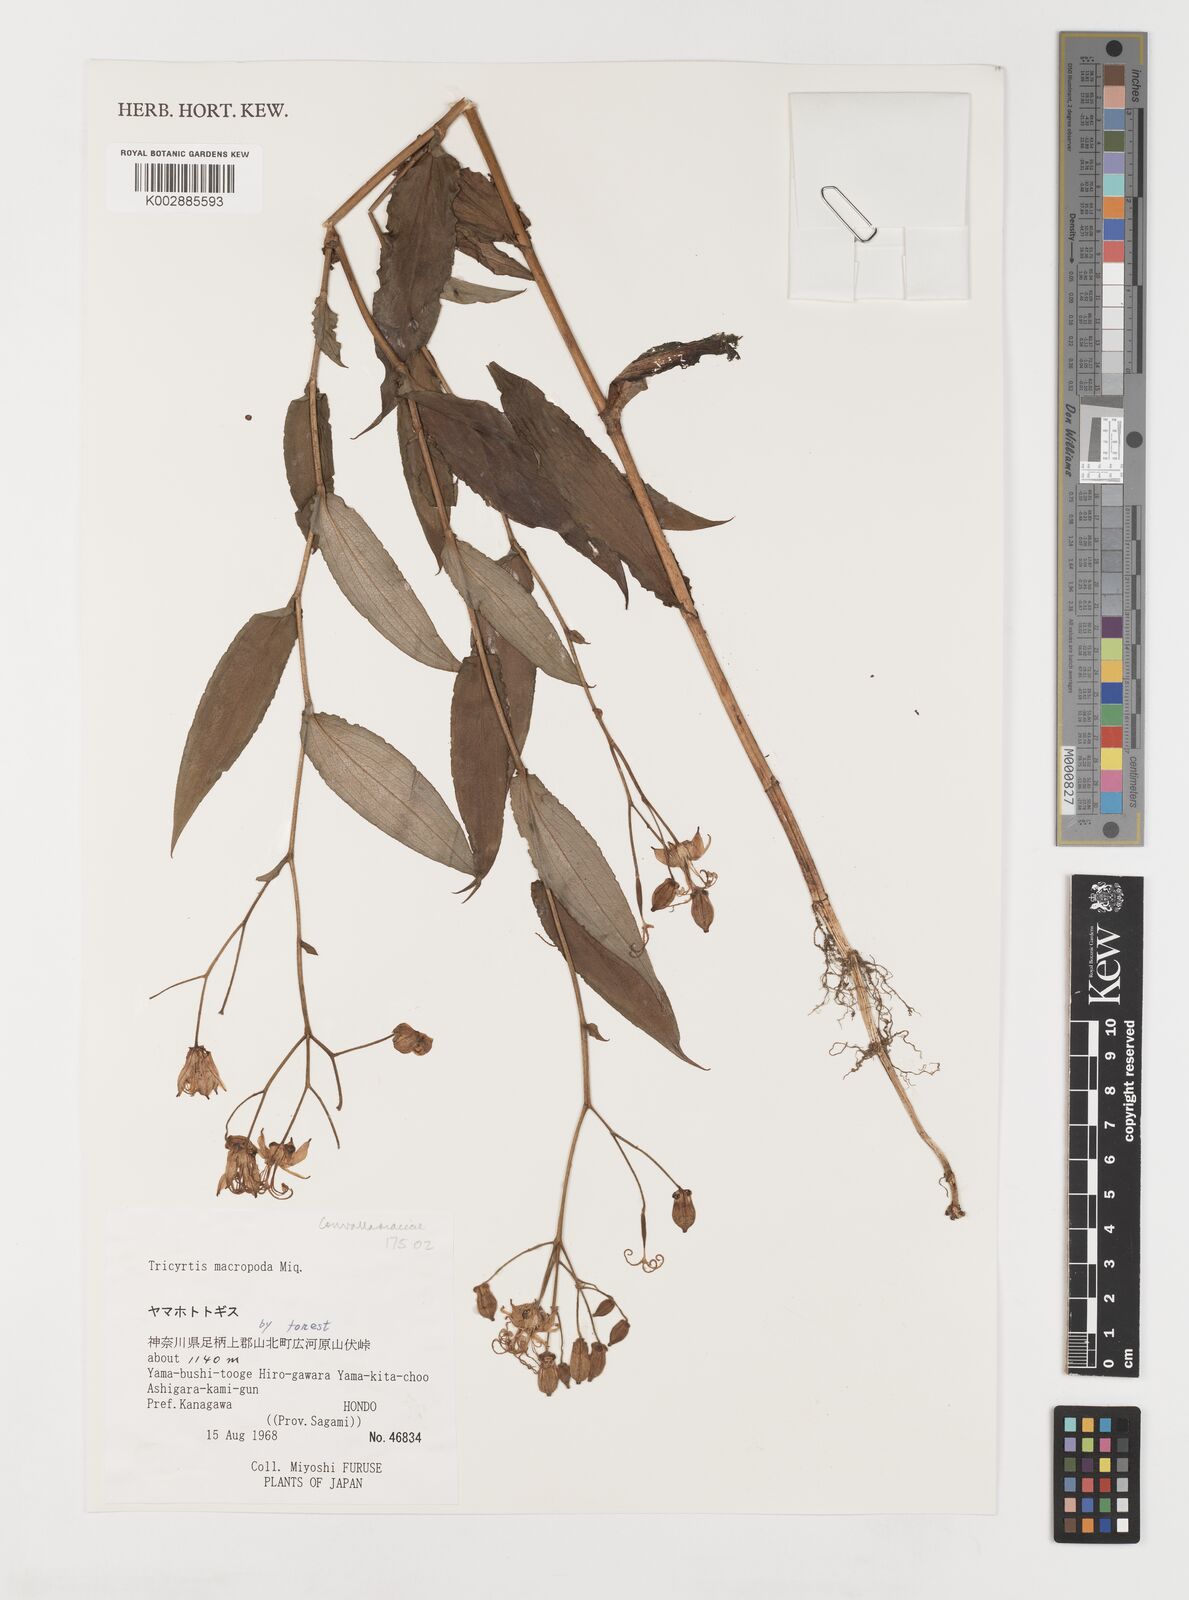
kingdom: Plantae
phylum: Tracheophyta
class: Liliopsida
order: Liliales
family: Liliaceae
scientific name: Liliaceae
